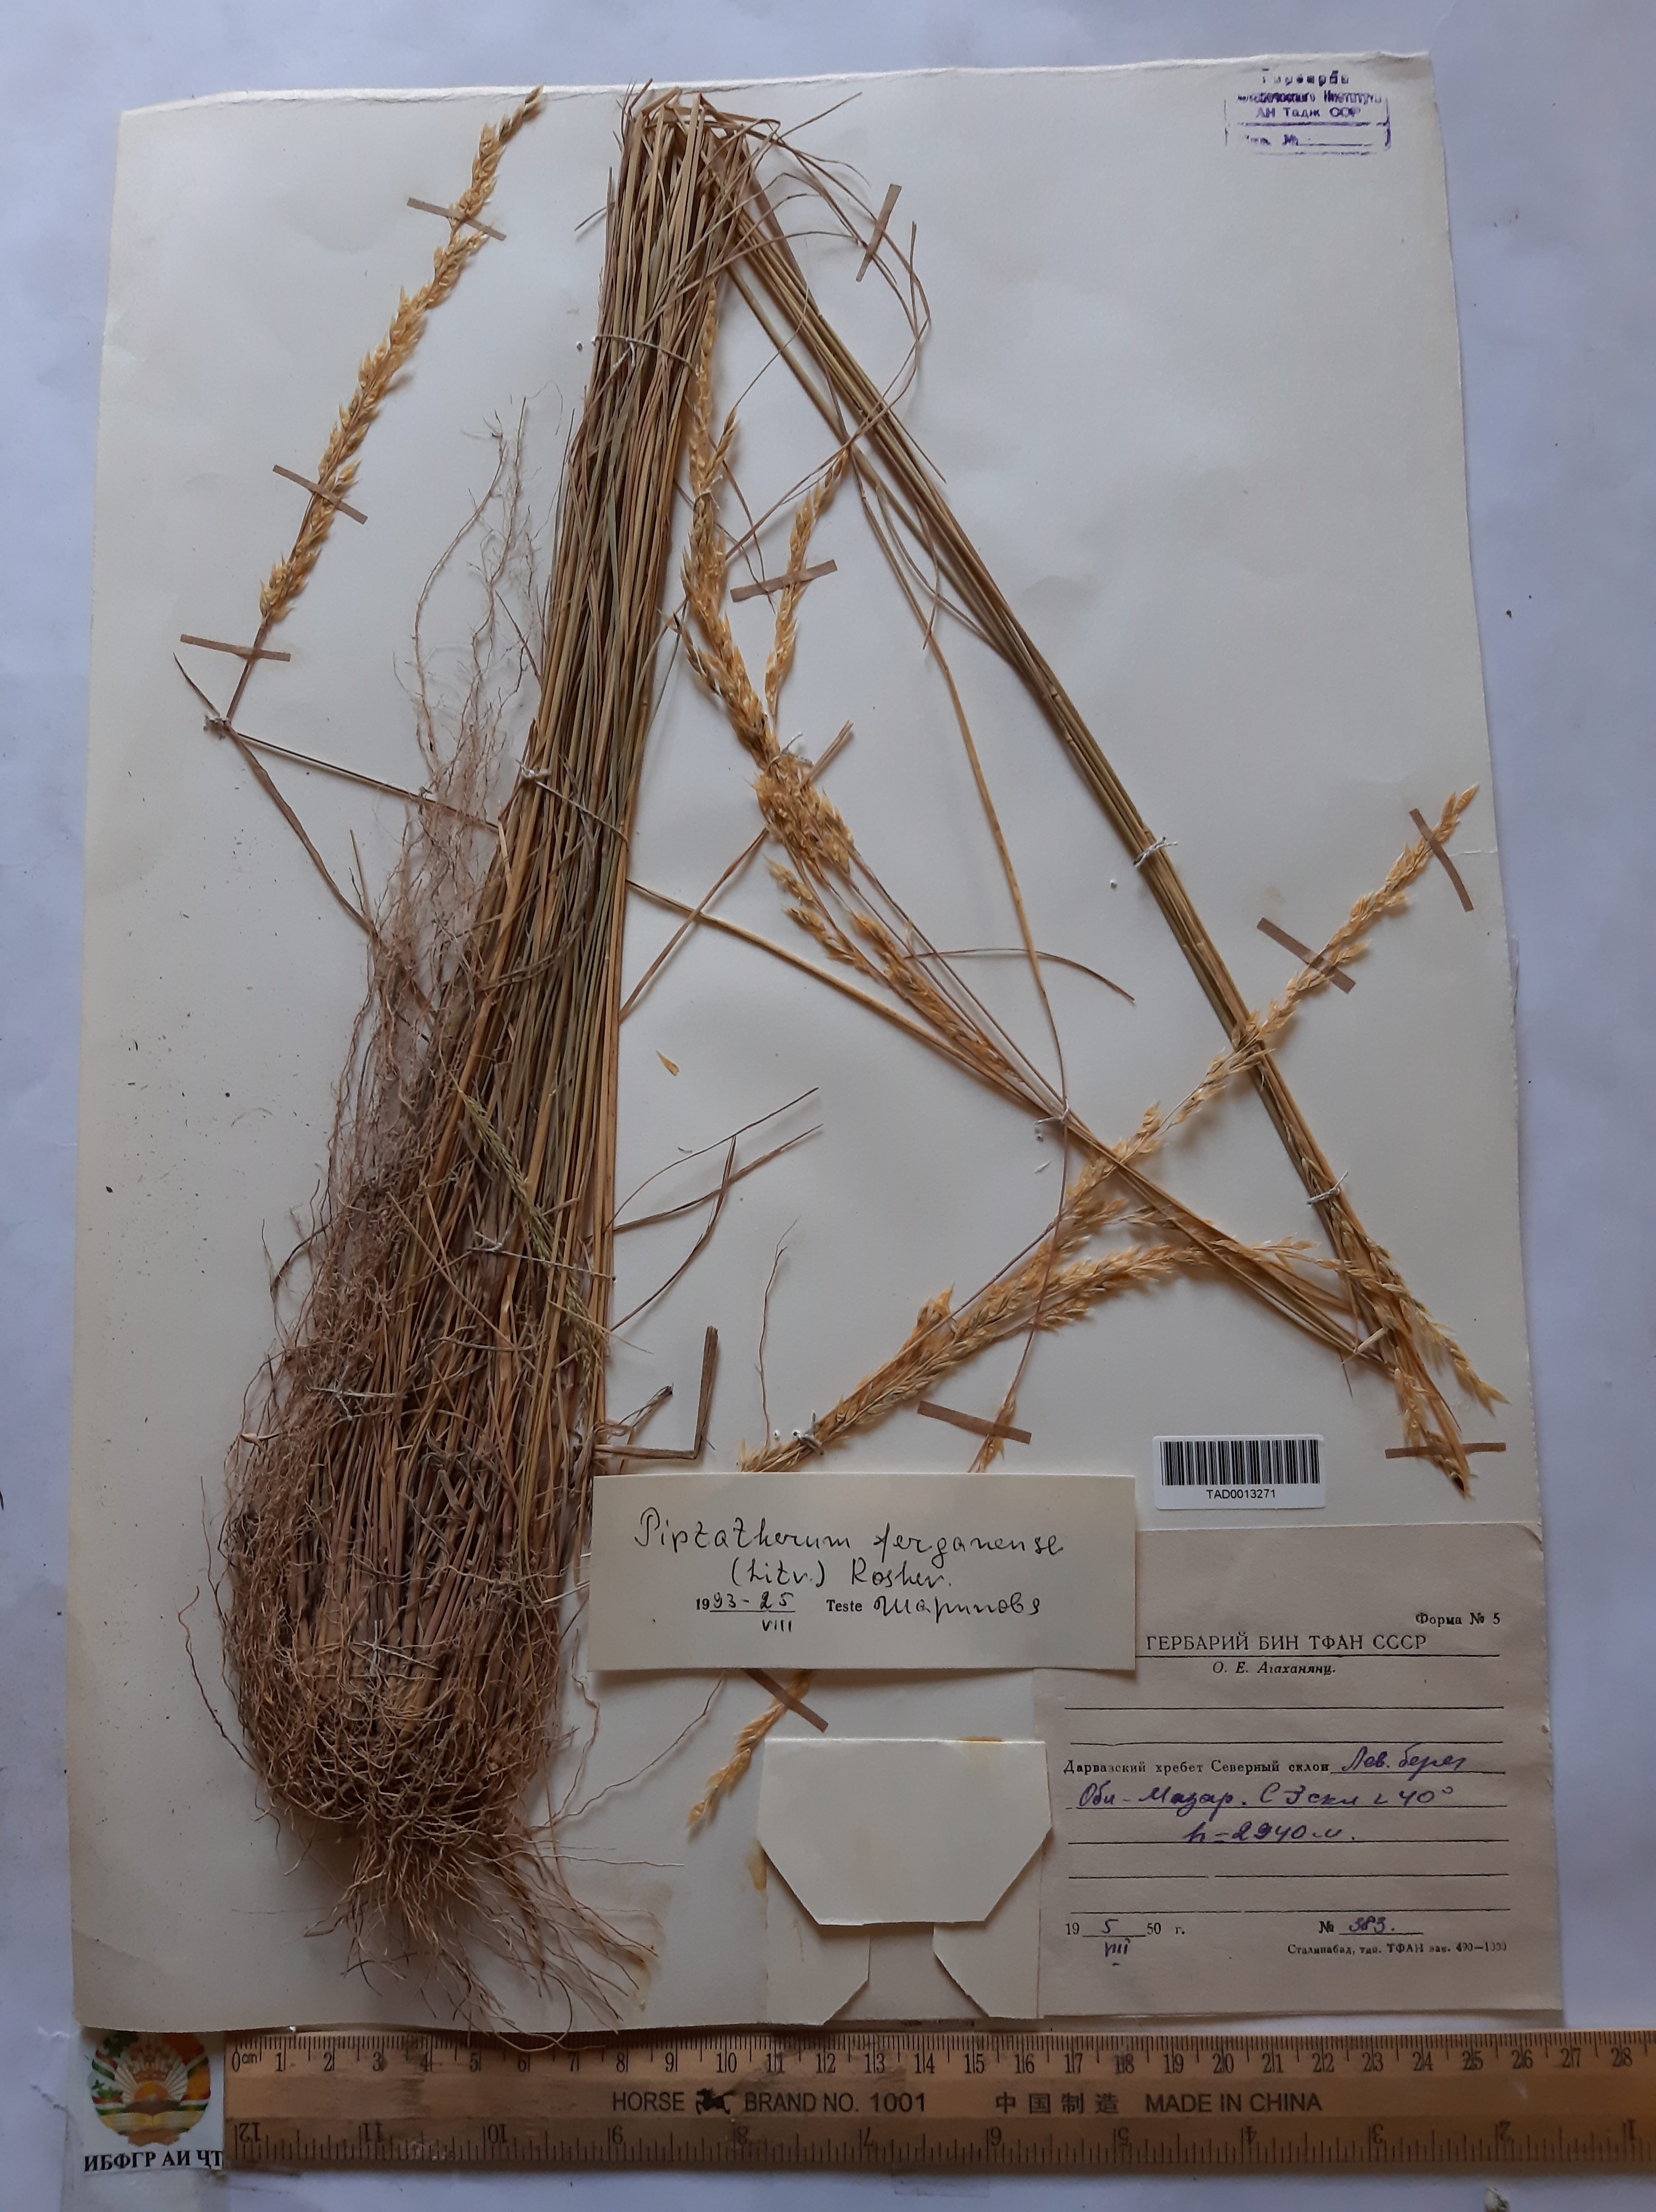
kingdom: Plantae
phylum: Tracheophyta
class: Liliopsida
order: Poales
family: Poaceae
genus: Piptatherum
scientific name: Piptatherum ferganense
